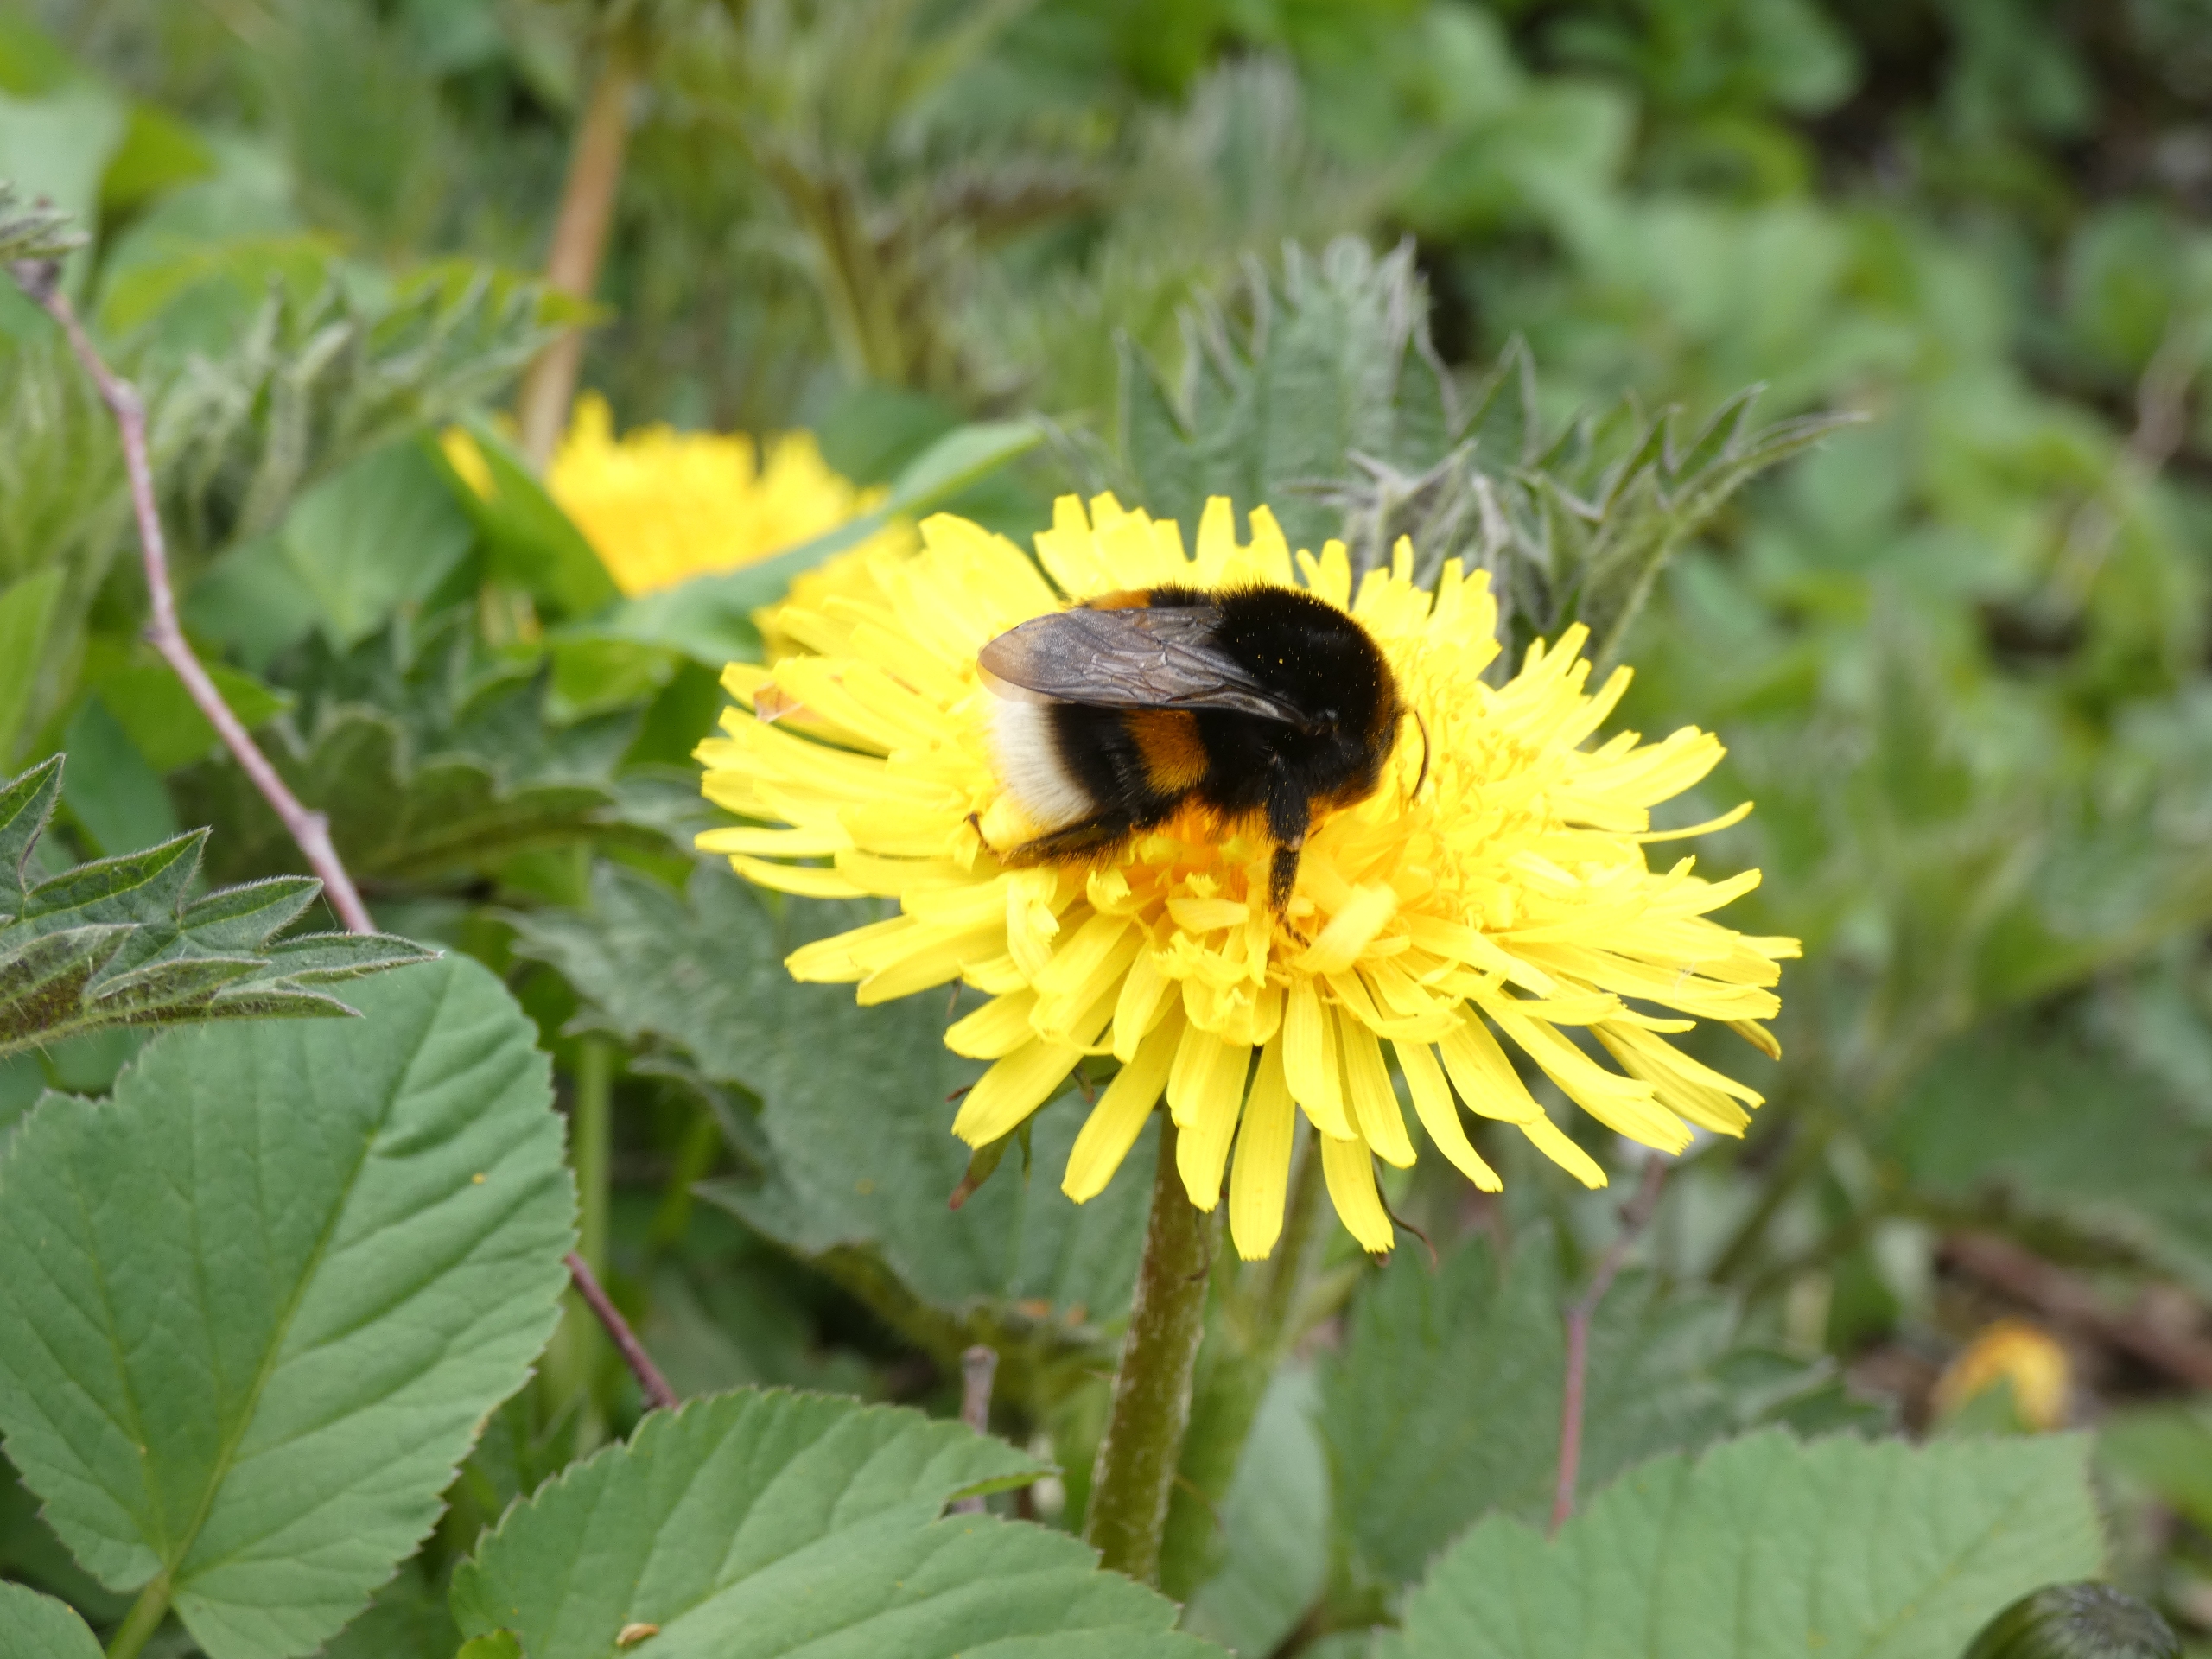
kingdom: Animalia
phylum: Arthropoda
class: Insecta
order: Hymenoptera
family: Apidae
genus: Bombus
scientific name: Bombus
